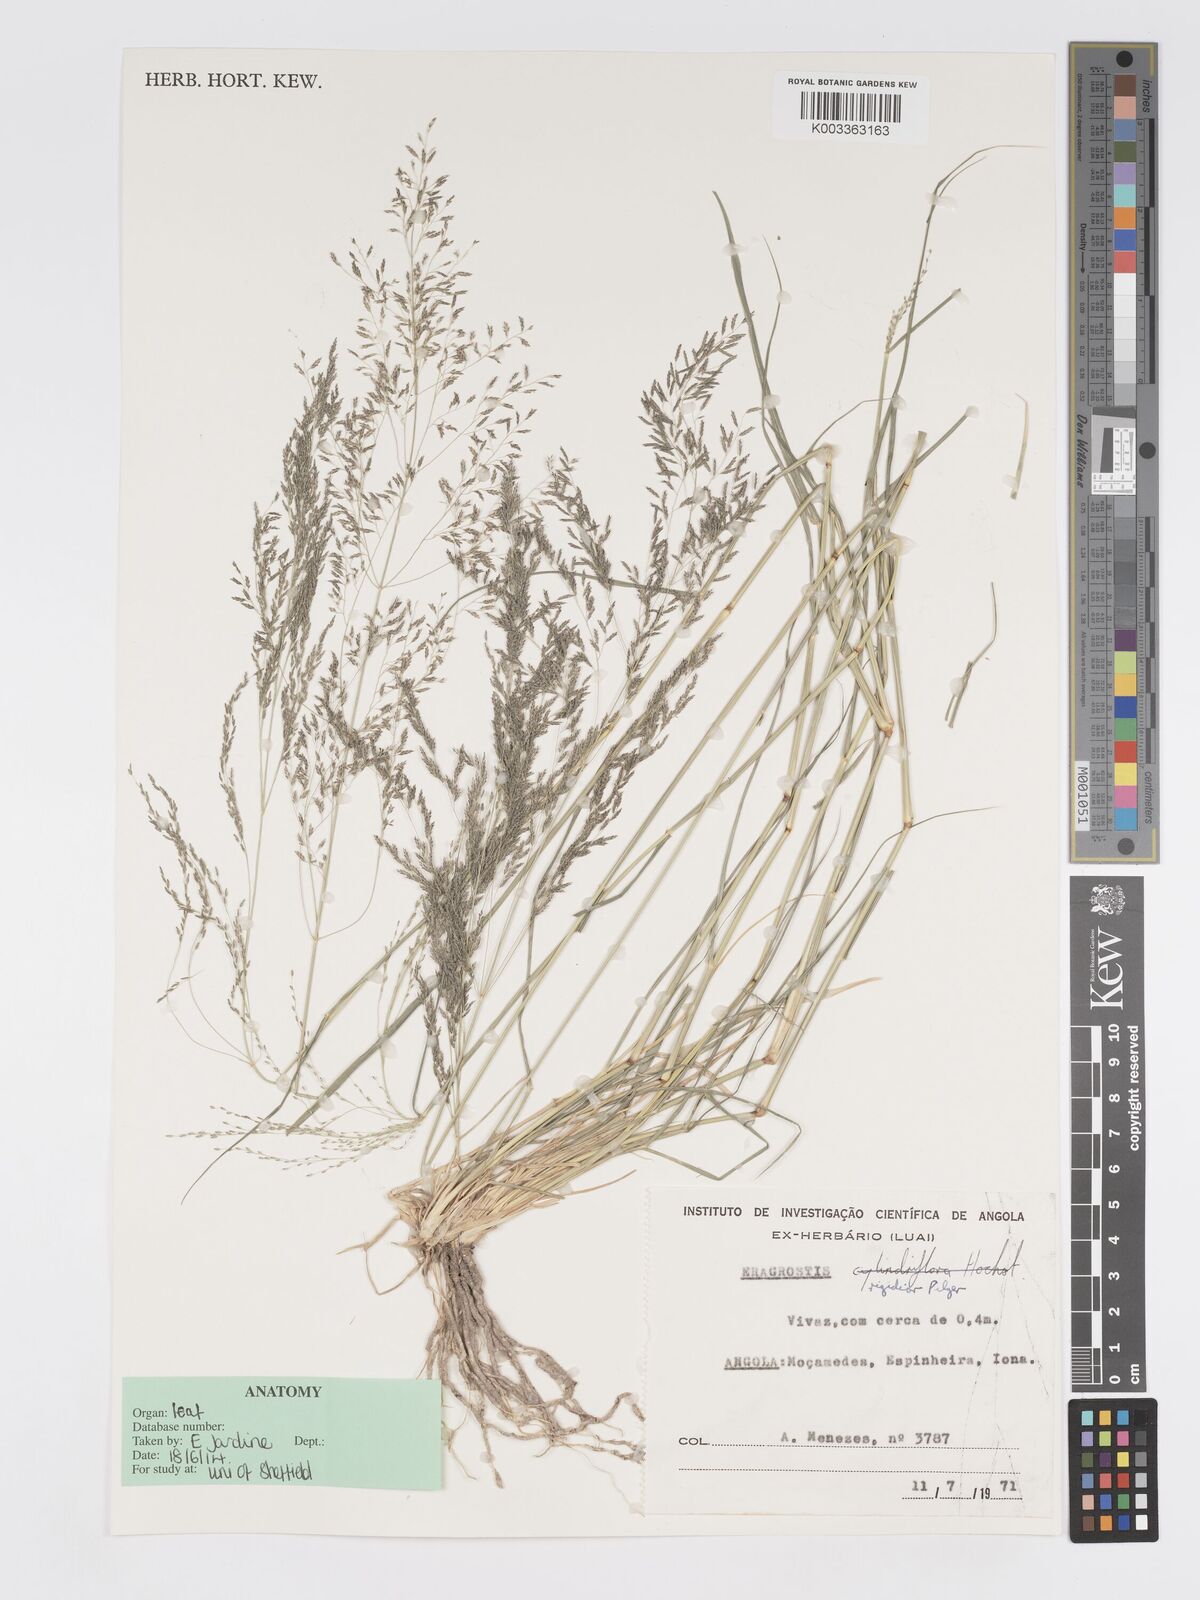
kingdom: Plantae
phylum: Tracheophyta
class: Liliopsida
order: Poales
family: Poaceae
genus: Eragrostis
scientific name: Eragrostis cylindriflora
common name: Cylinderflower lovegrass
